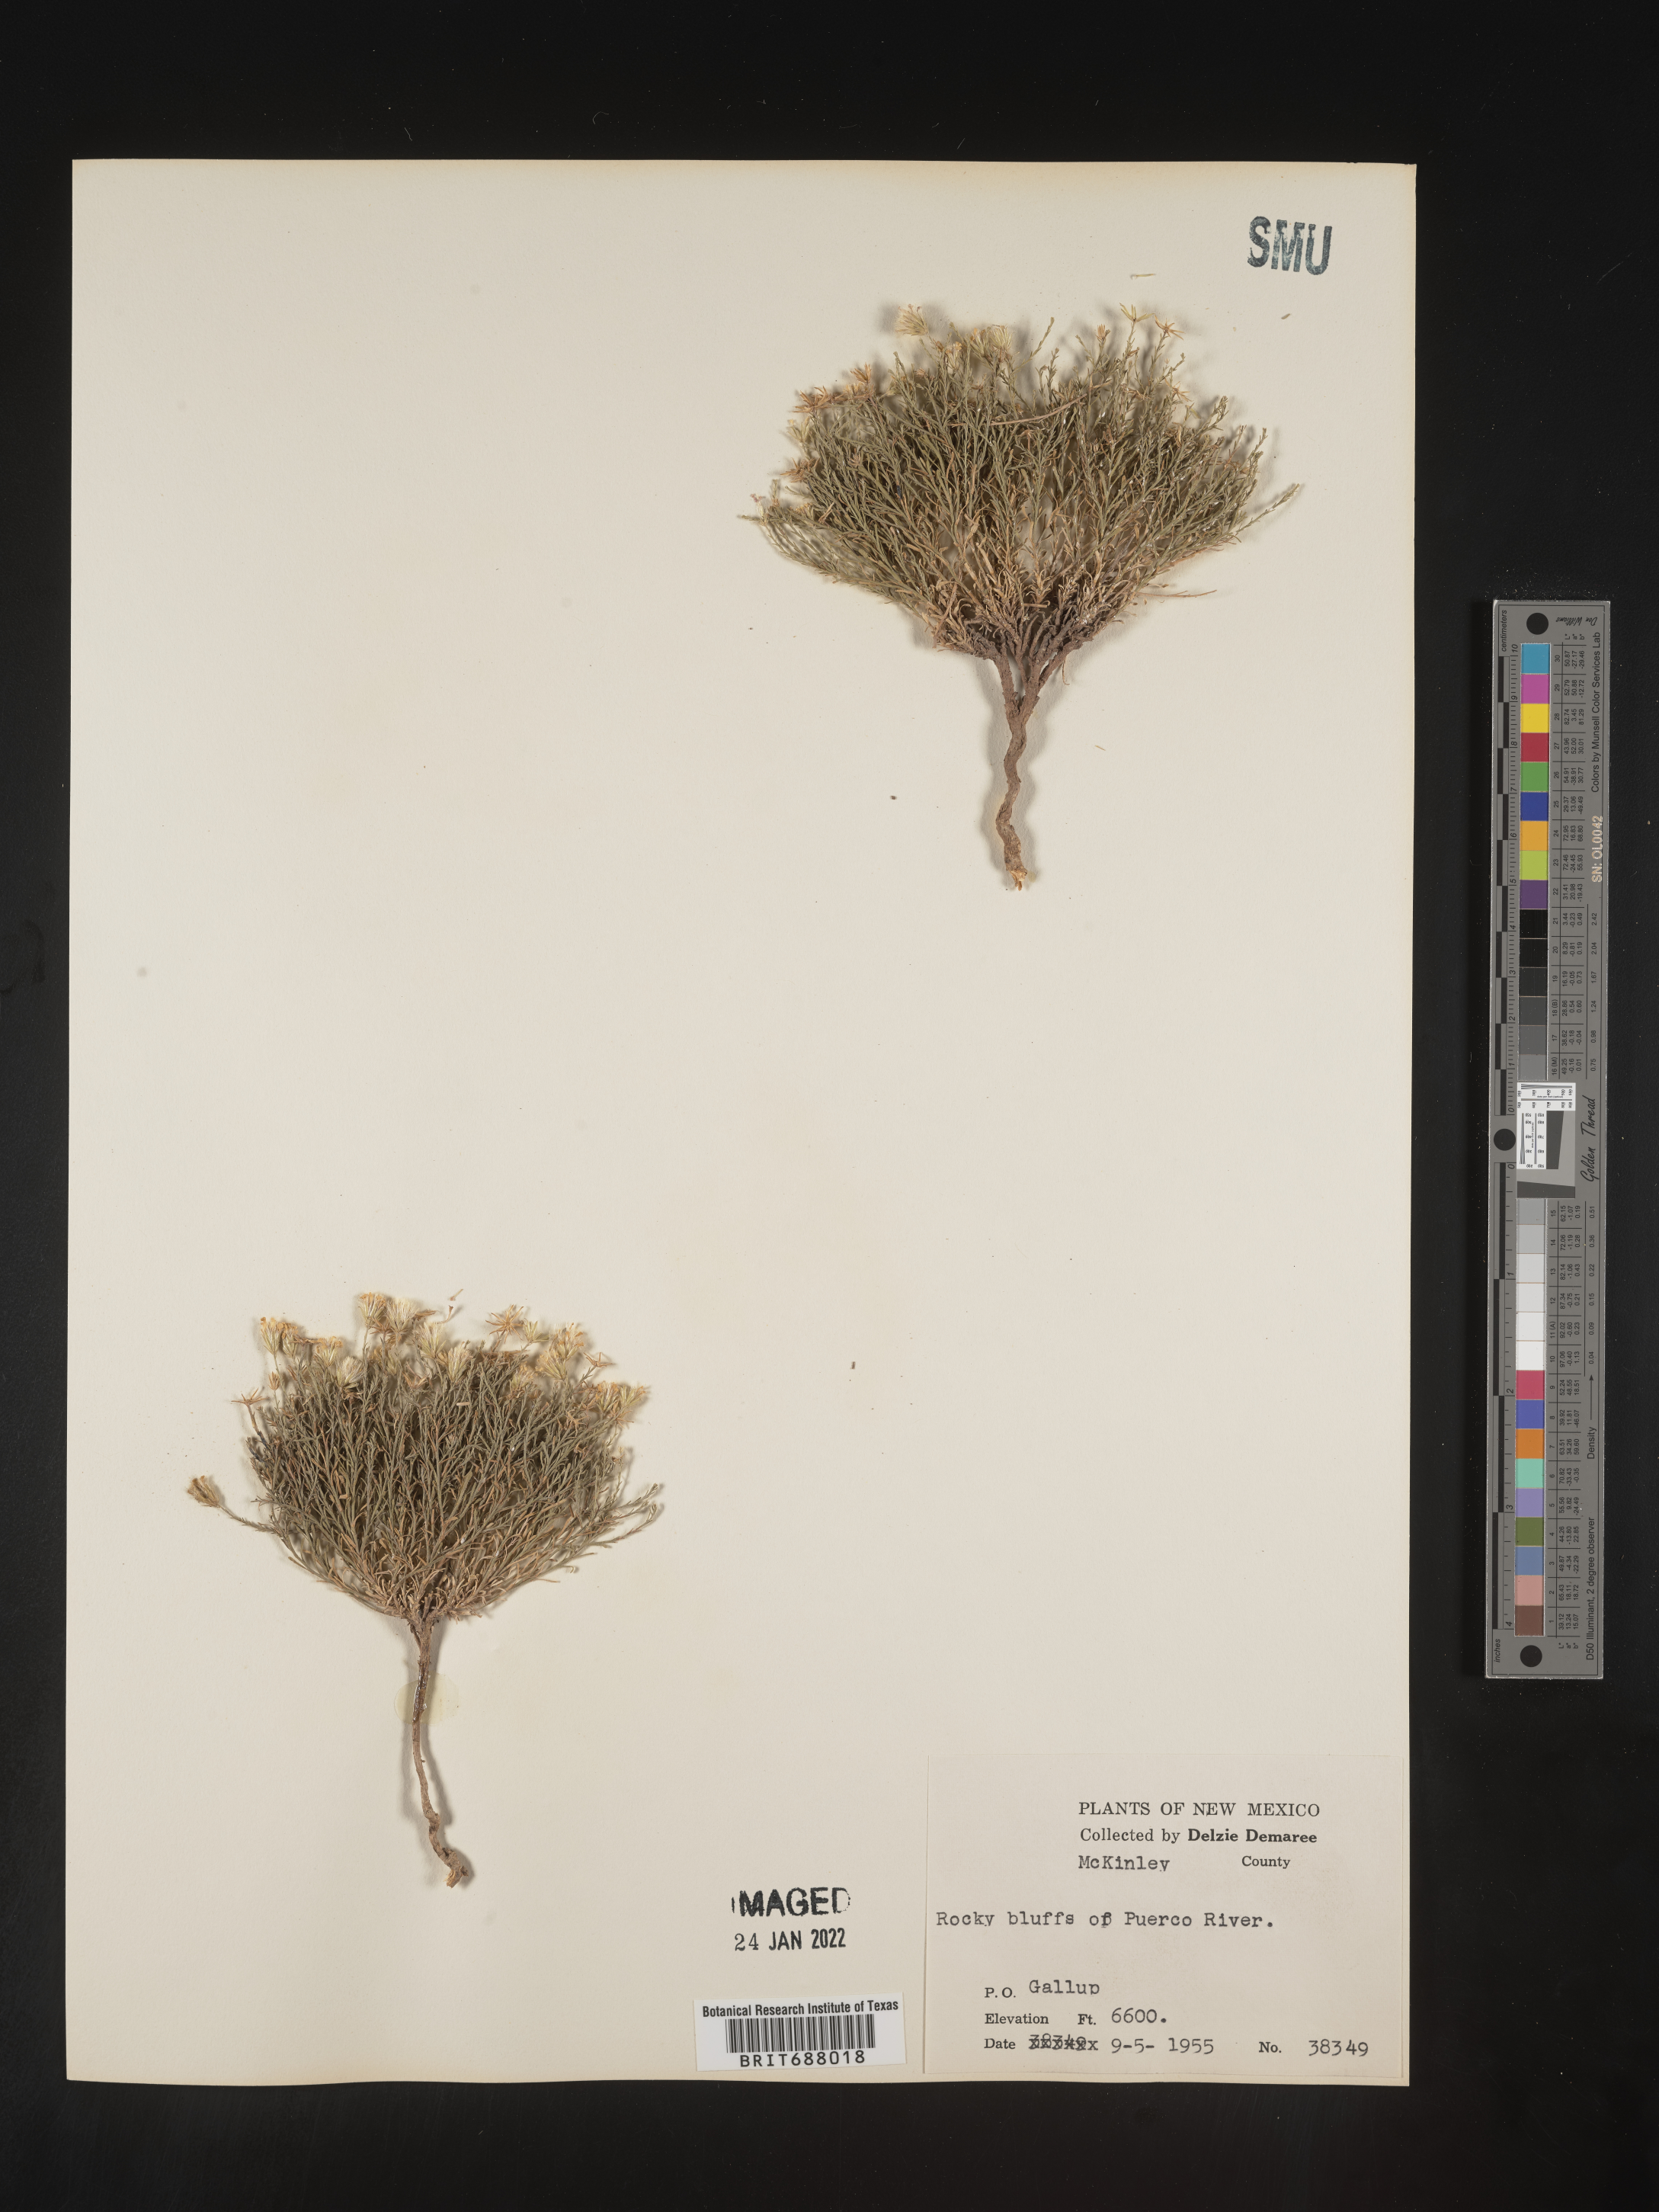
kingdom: Plantae
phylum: Tracheophyta
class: Magnoliopsida
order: Asterales
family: Asteraceae
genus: Chaetopappa
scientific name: Chaetopappa ericoides
